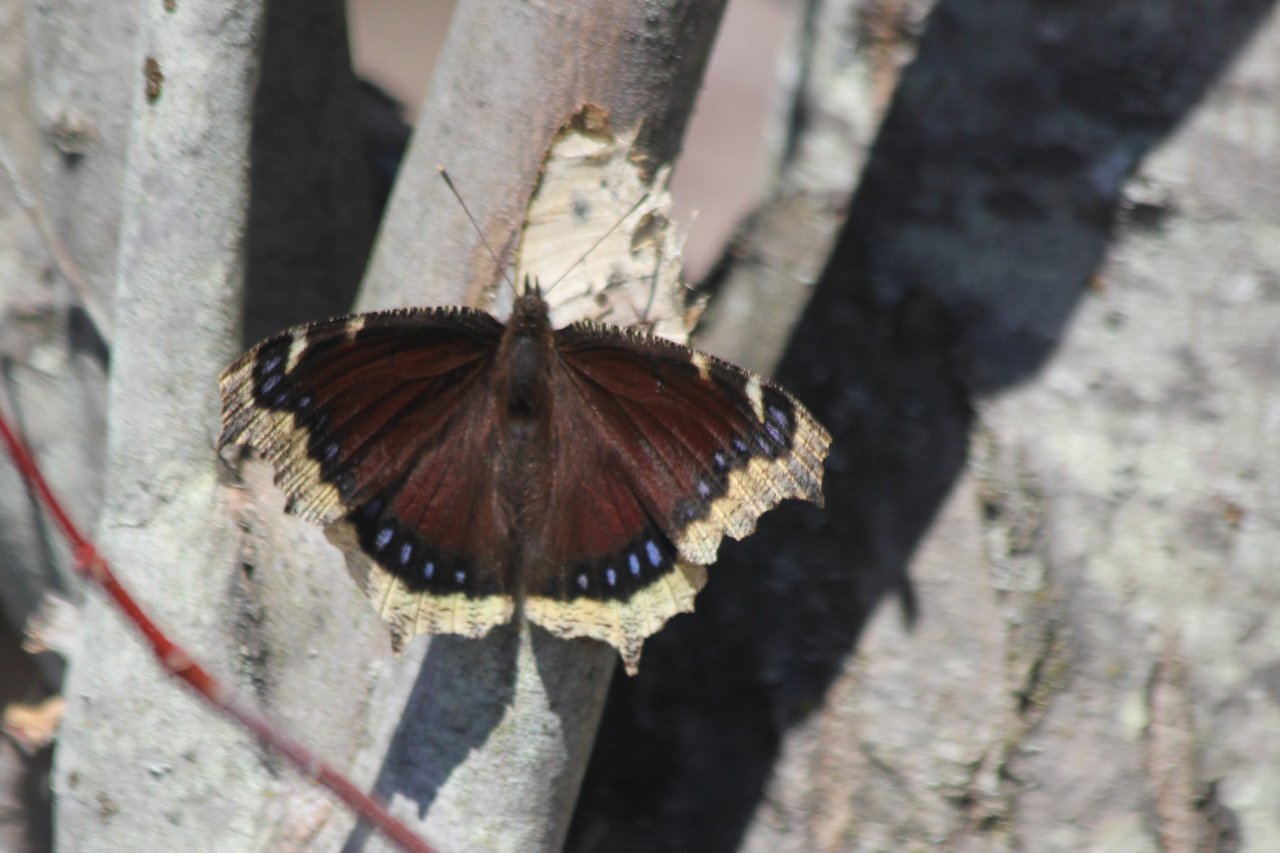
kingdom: Animalia
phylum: Arthropoda
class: Insecta
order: Lepidoptera
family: Nymphalidae
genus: Nymphalis
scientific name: Nymphalis antiopa
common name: Mourning Cloak
